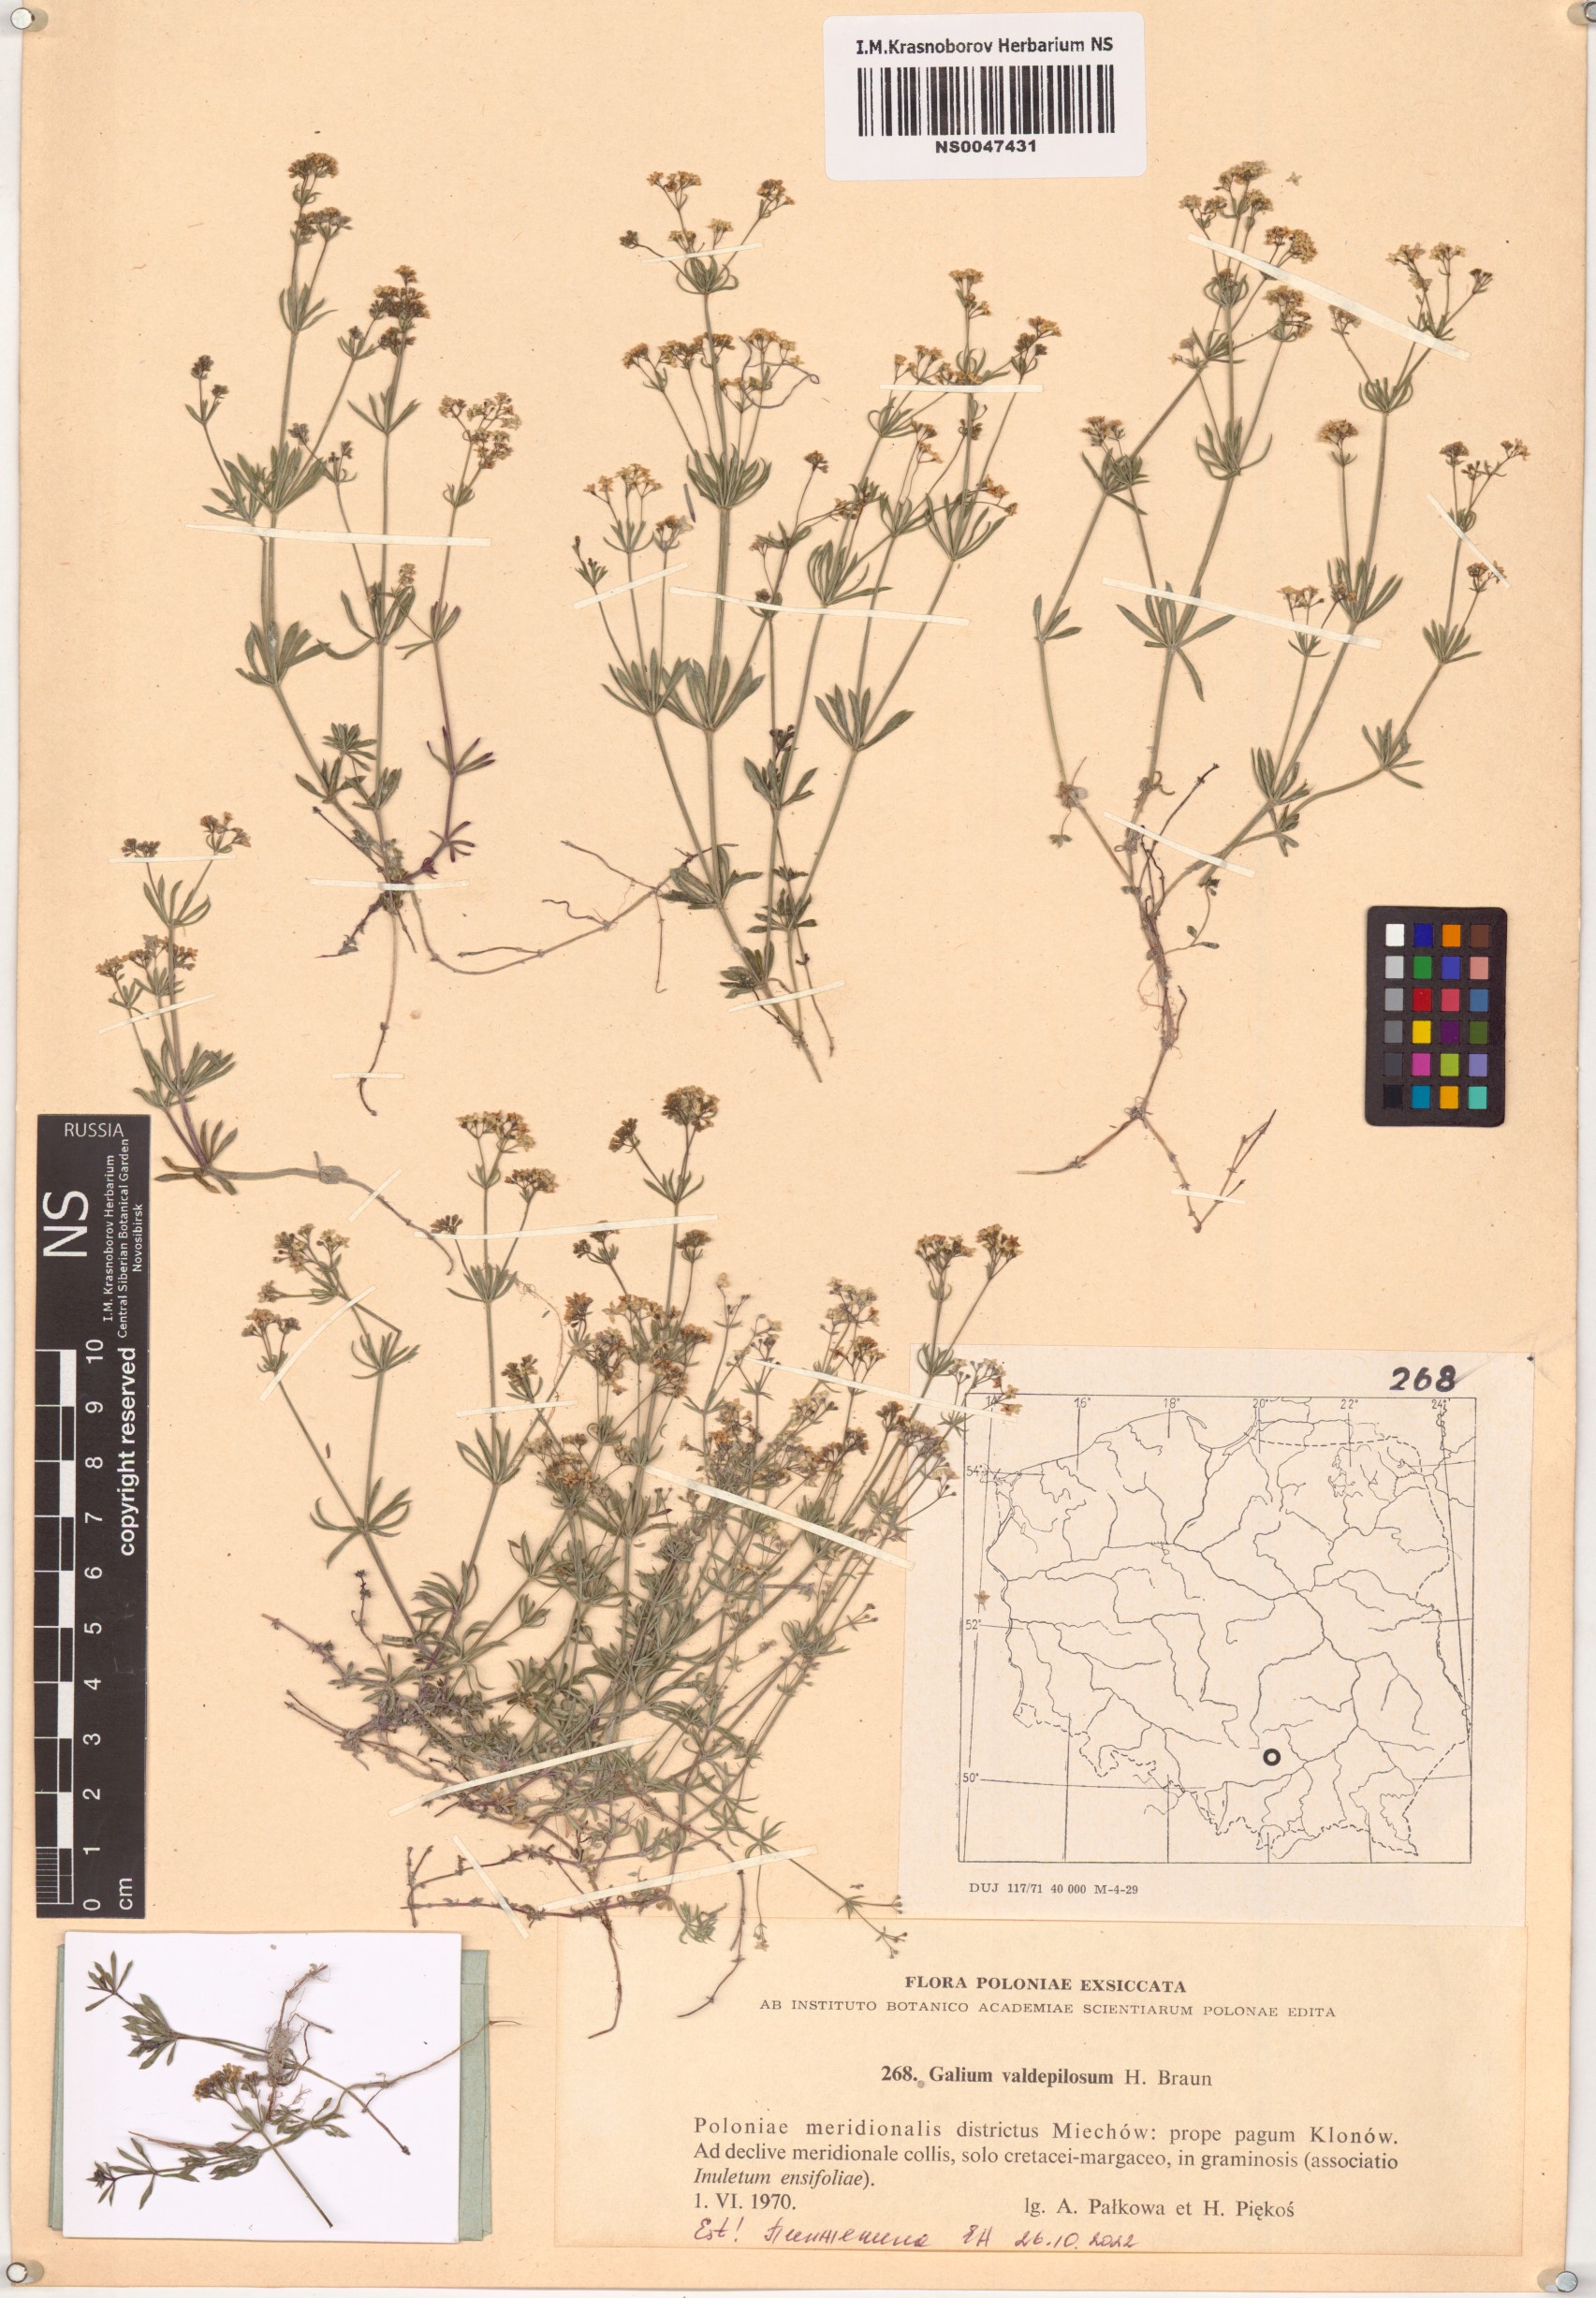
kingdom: Plantae
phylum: Tracheophyta
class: Magnoliopsida
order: Gentianales
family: Rubiaceae
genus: Galium
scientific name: Galium valdepilosum
